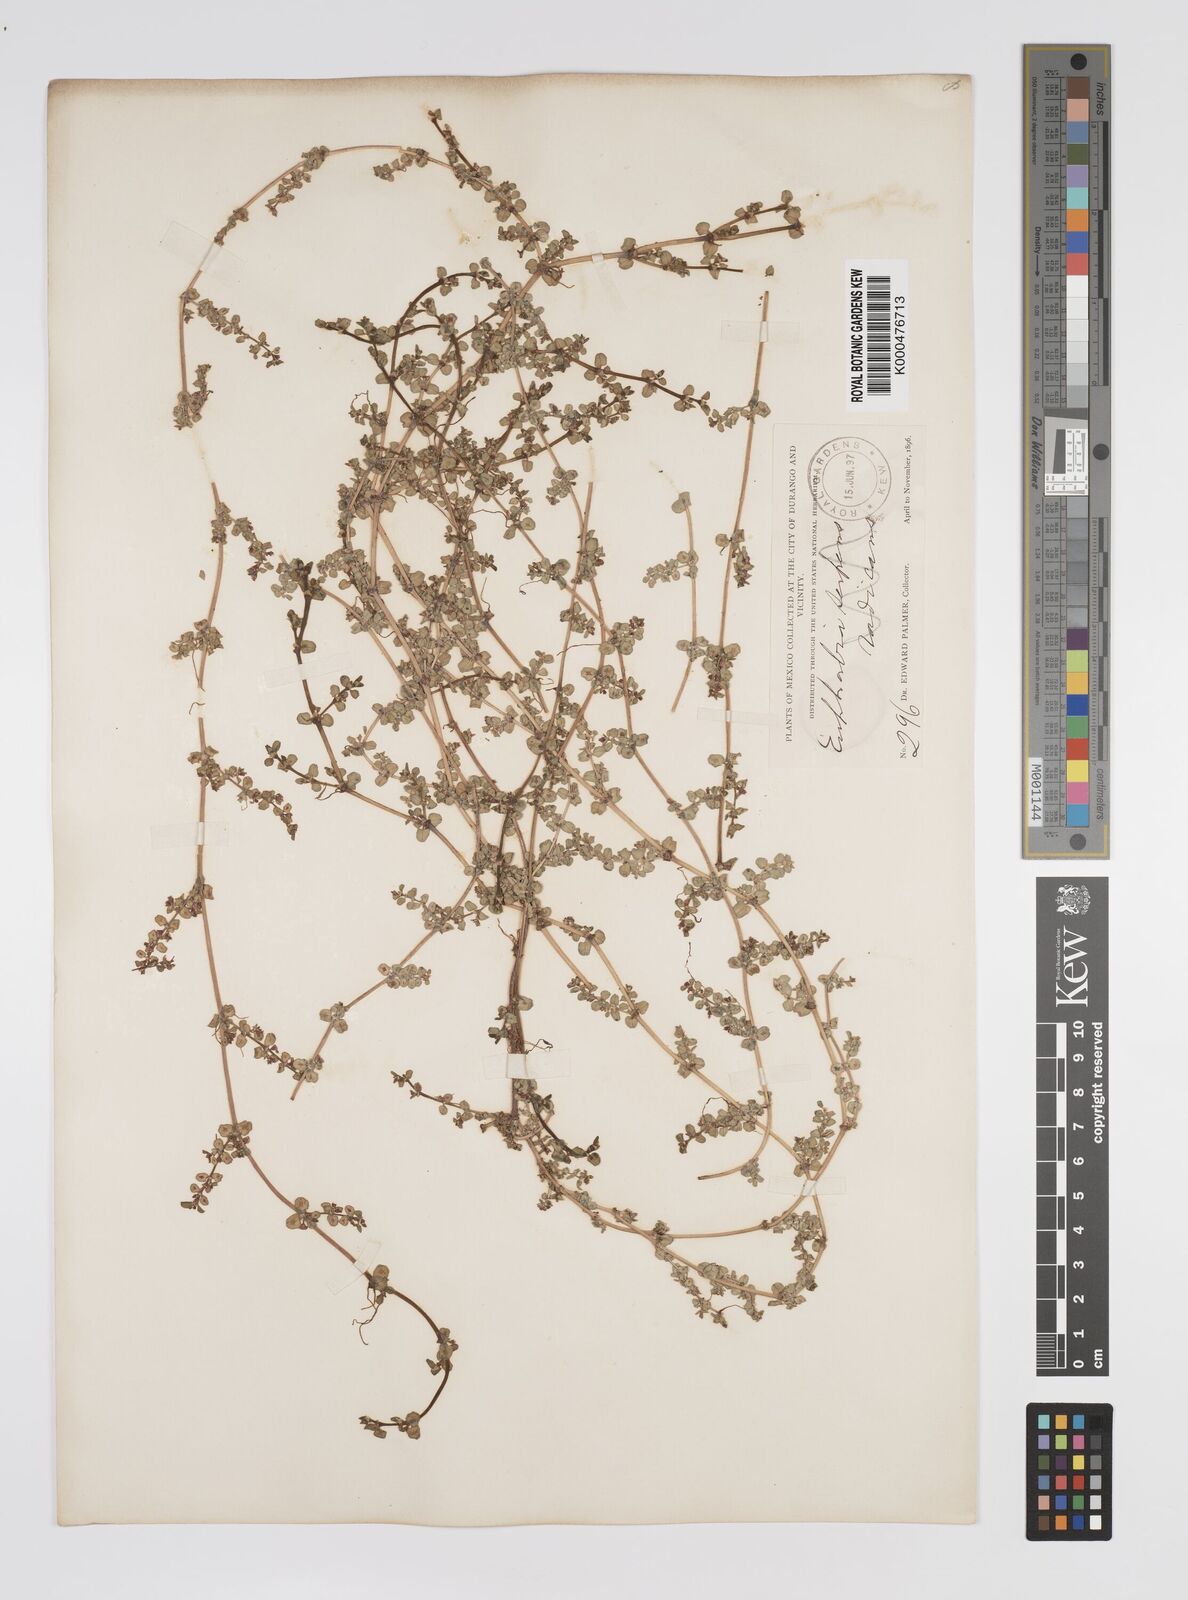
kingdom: Plantae
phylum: Tracheophyta
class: Magnoliopsida
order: Malpighiales
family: Euphorbiaceae
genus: Euphorbia
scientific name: Euphorbia
